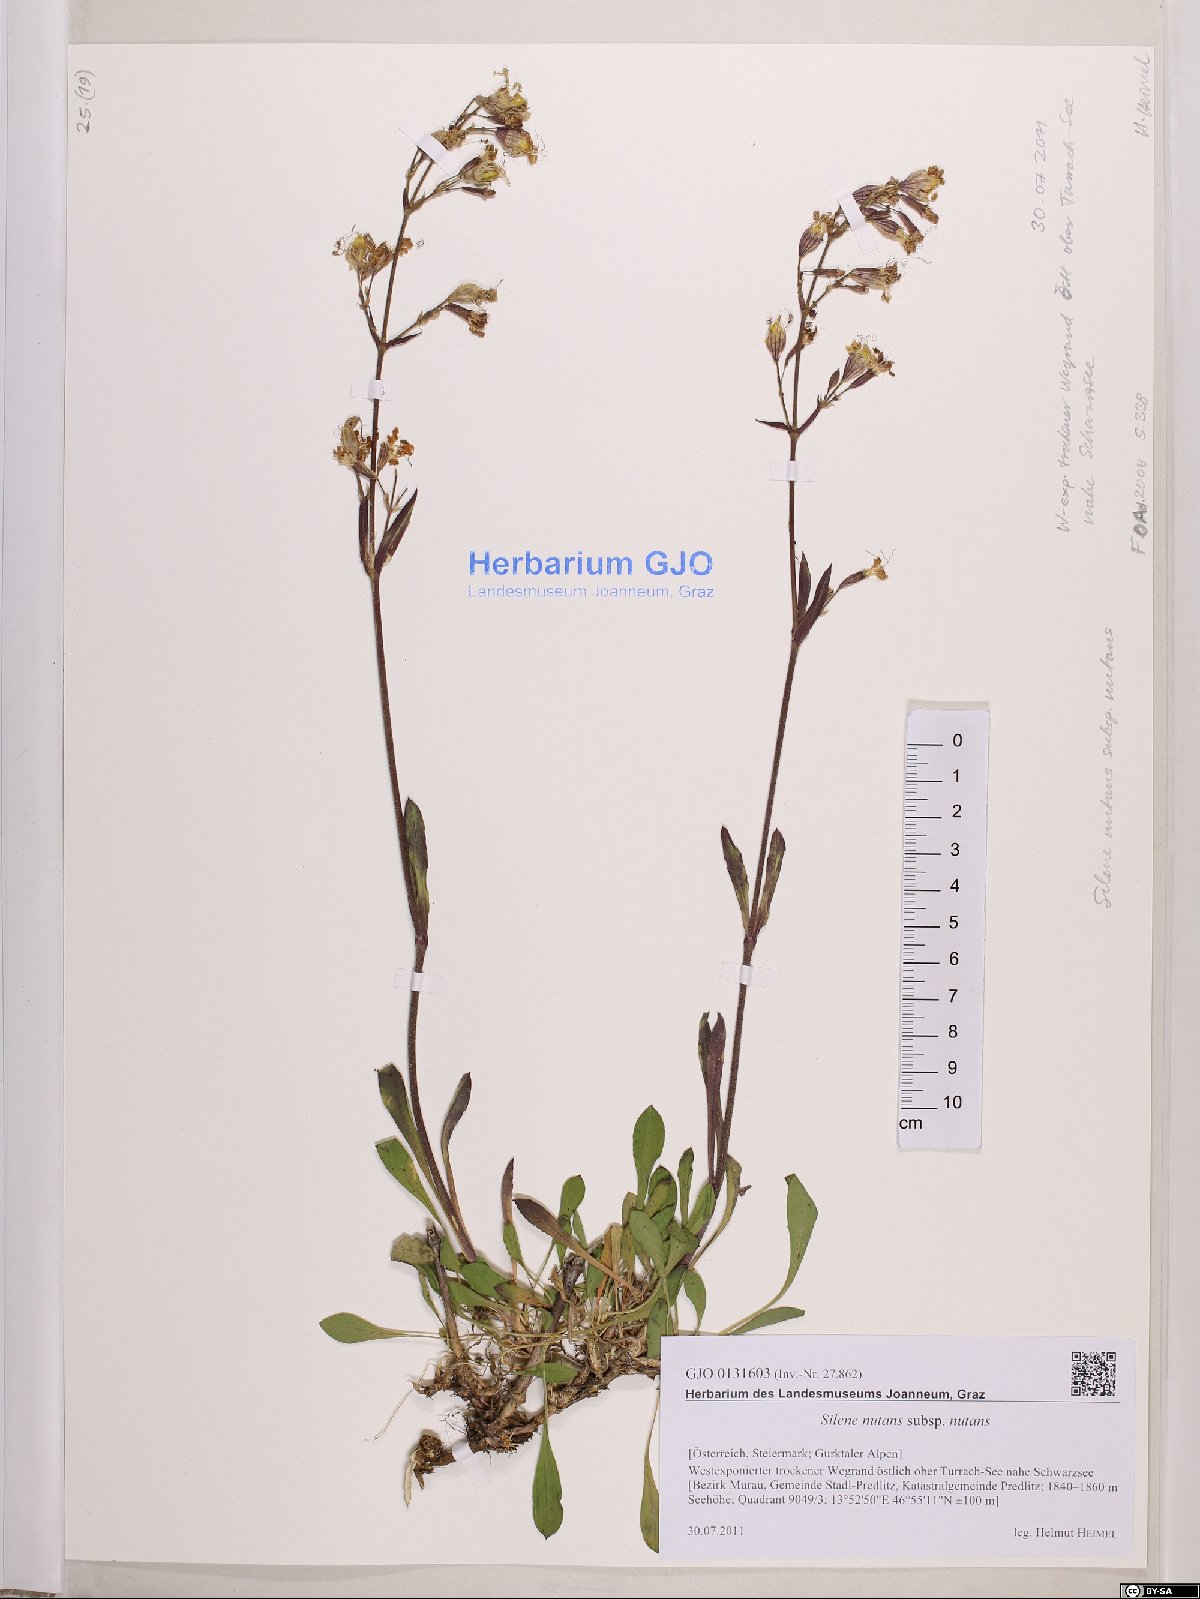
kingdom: Plantae
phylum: Tracheophyta
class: Magnoliopsida
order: Caryophyllales
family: Caryophyllaceae
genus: Silene
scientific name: Silene nutans
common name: Nottingham catchfly
